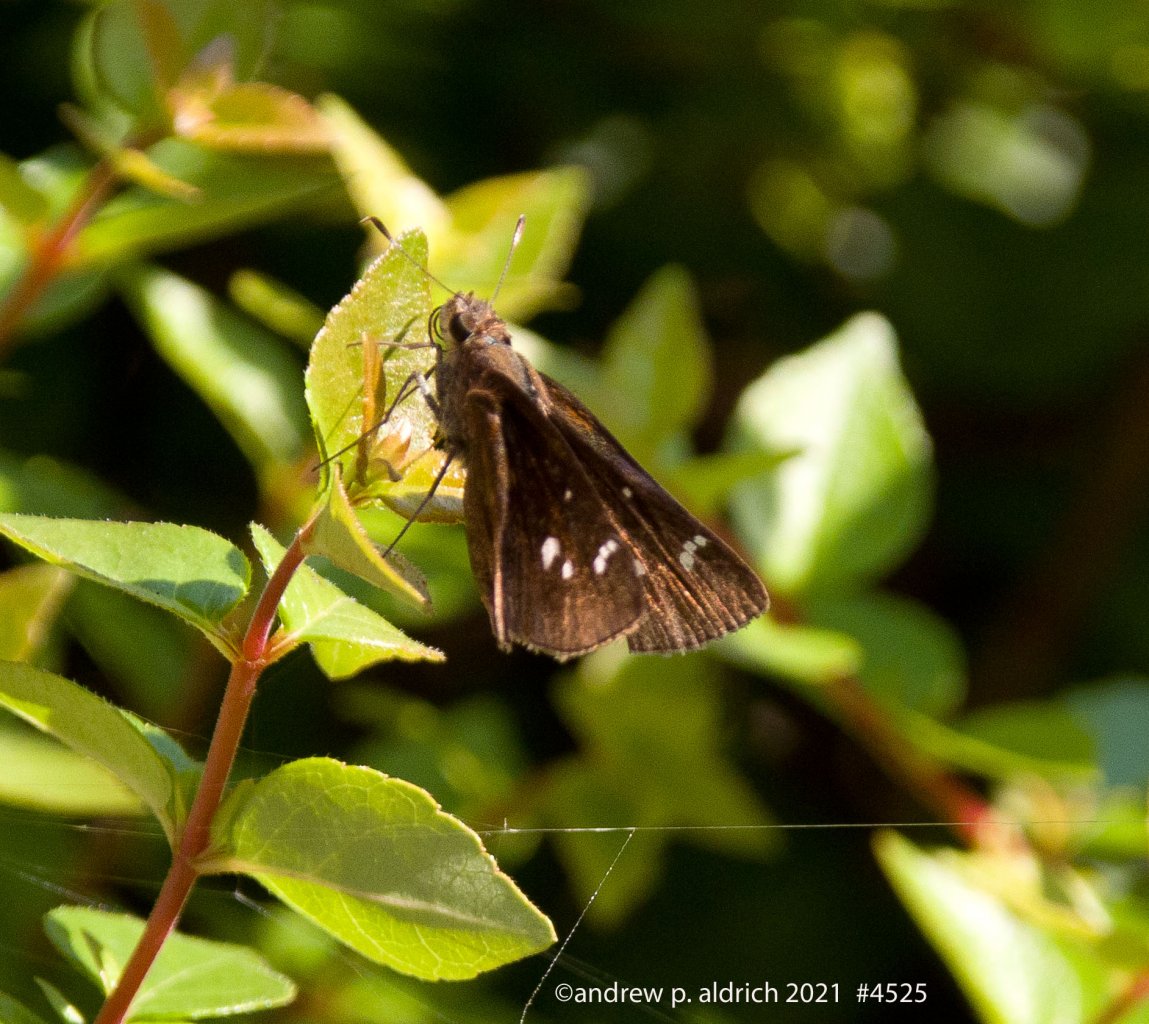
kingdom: Animalia
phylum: Arthropoda
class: Insecta
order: Lepidoptera
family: Hesperiidae
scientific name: Hesperiidae
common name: Skippers
